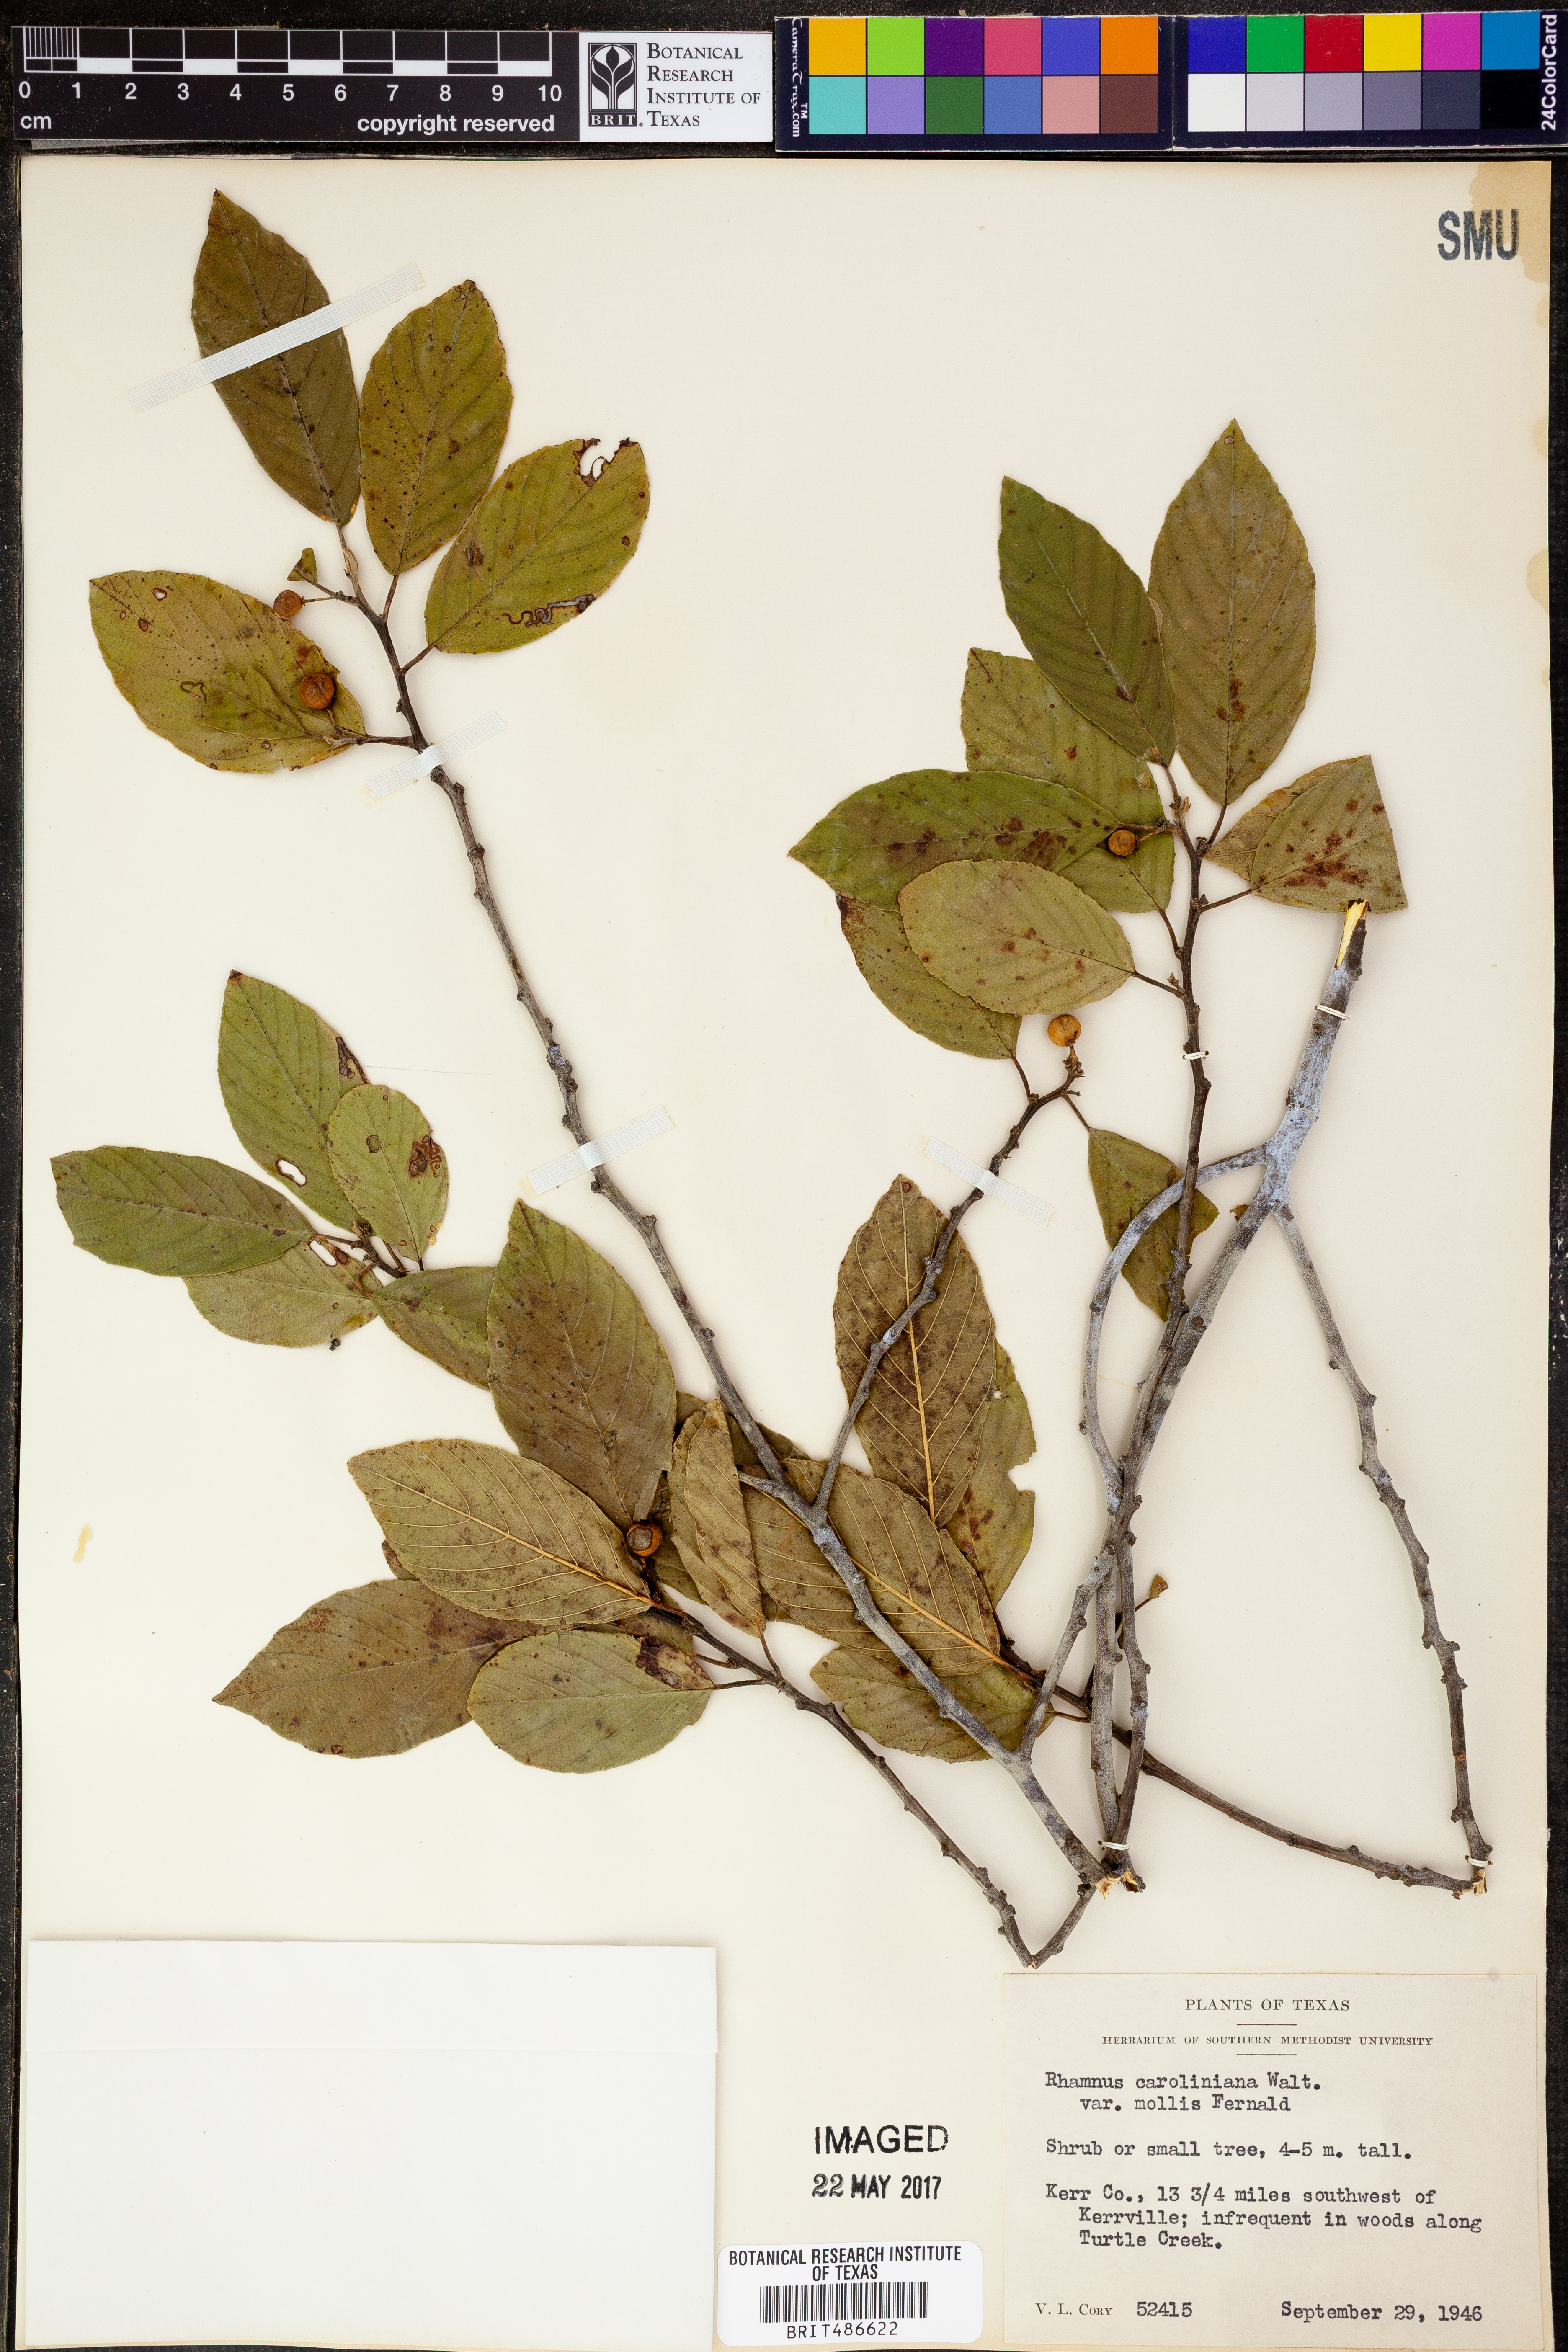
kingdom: Plantae
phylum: Tracheophyta
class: Magnoliopsida
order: Rosales
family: Rhamnaceae
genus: Frangula
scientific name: Frangula caroliniana
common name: Carolina buckthorn
